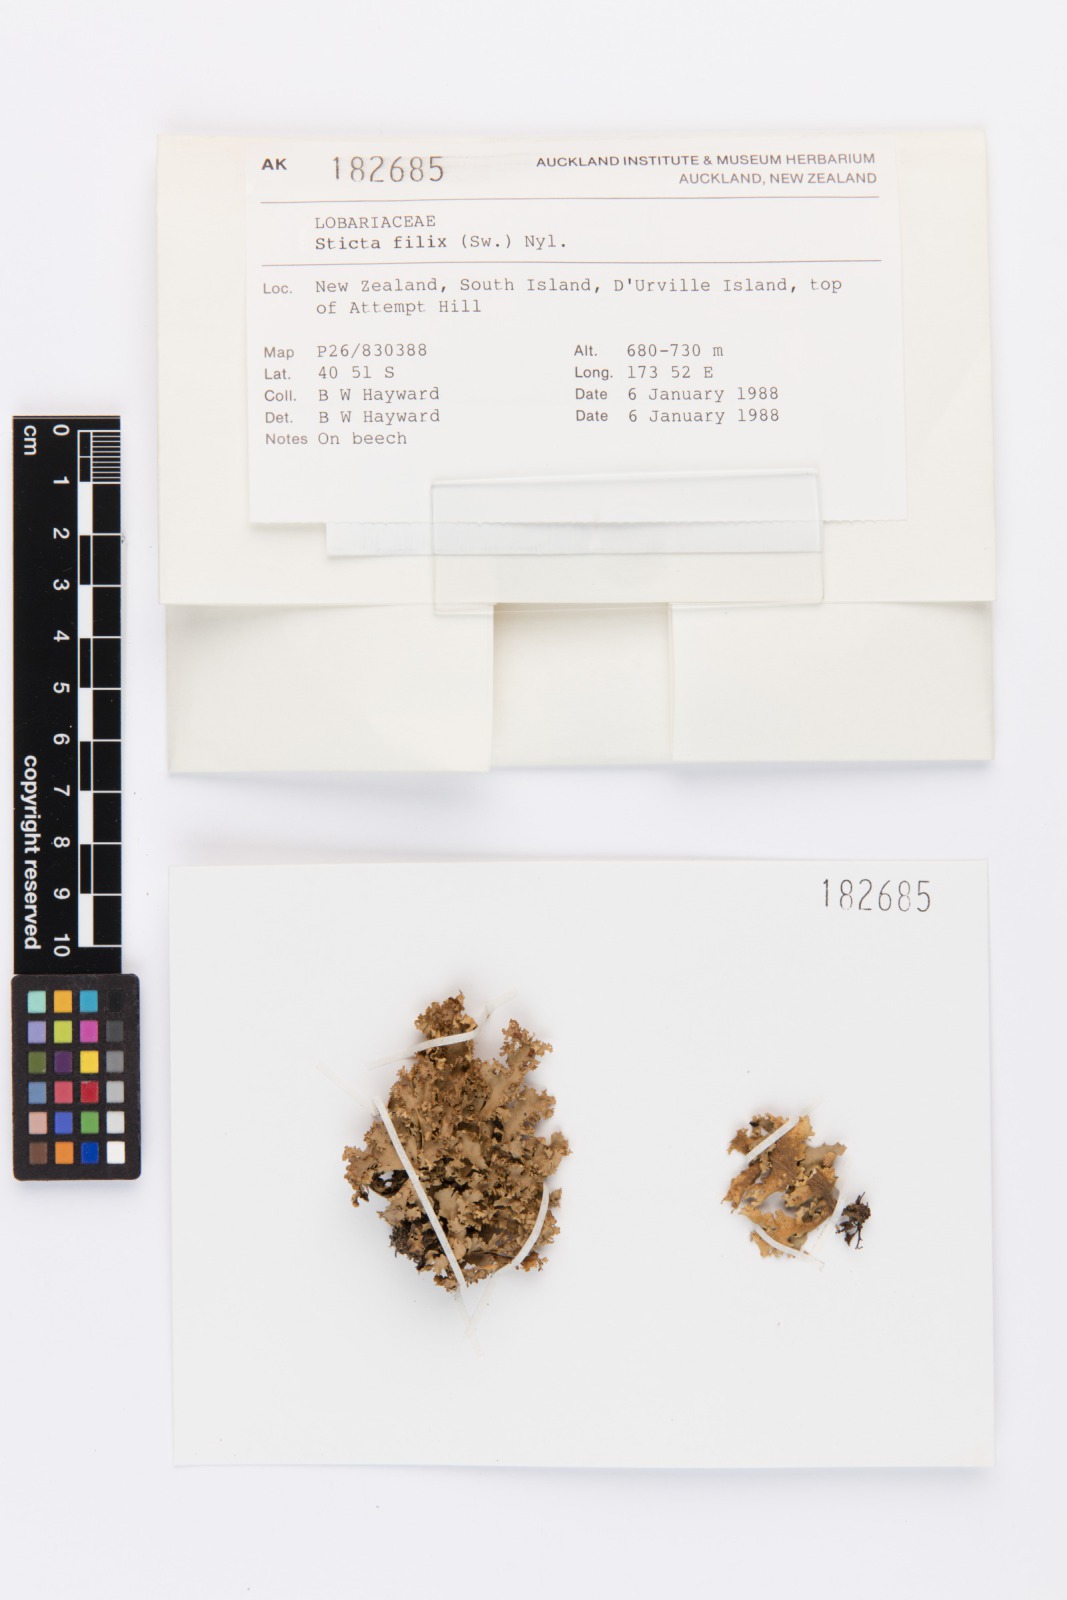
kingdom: Fungi
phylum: Ascomycota
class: Lecanoromycetes
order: Peltigerales
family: Lobariaceae
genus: Sticta
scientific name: Sticta filix
